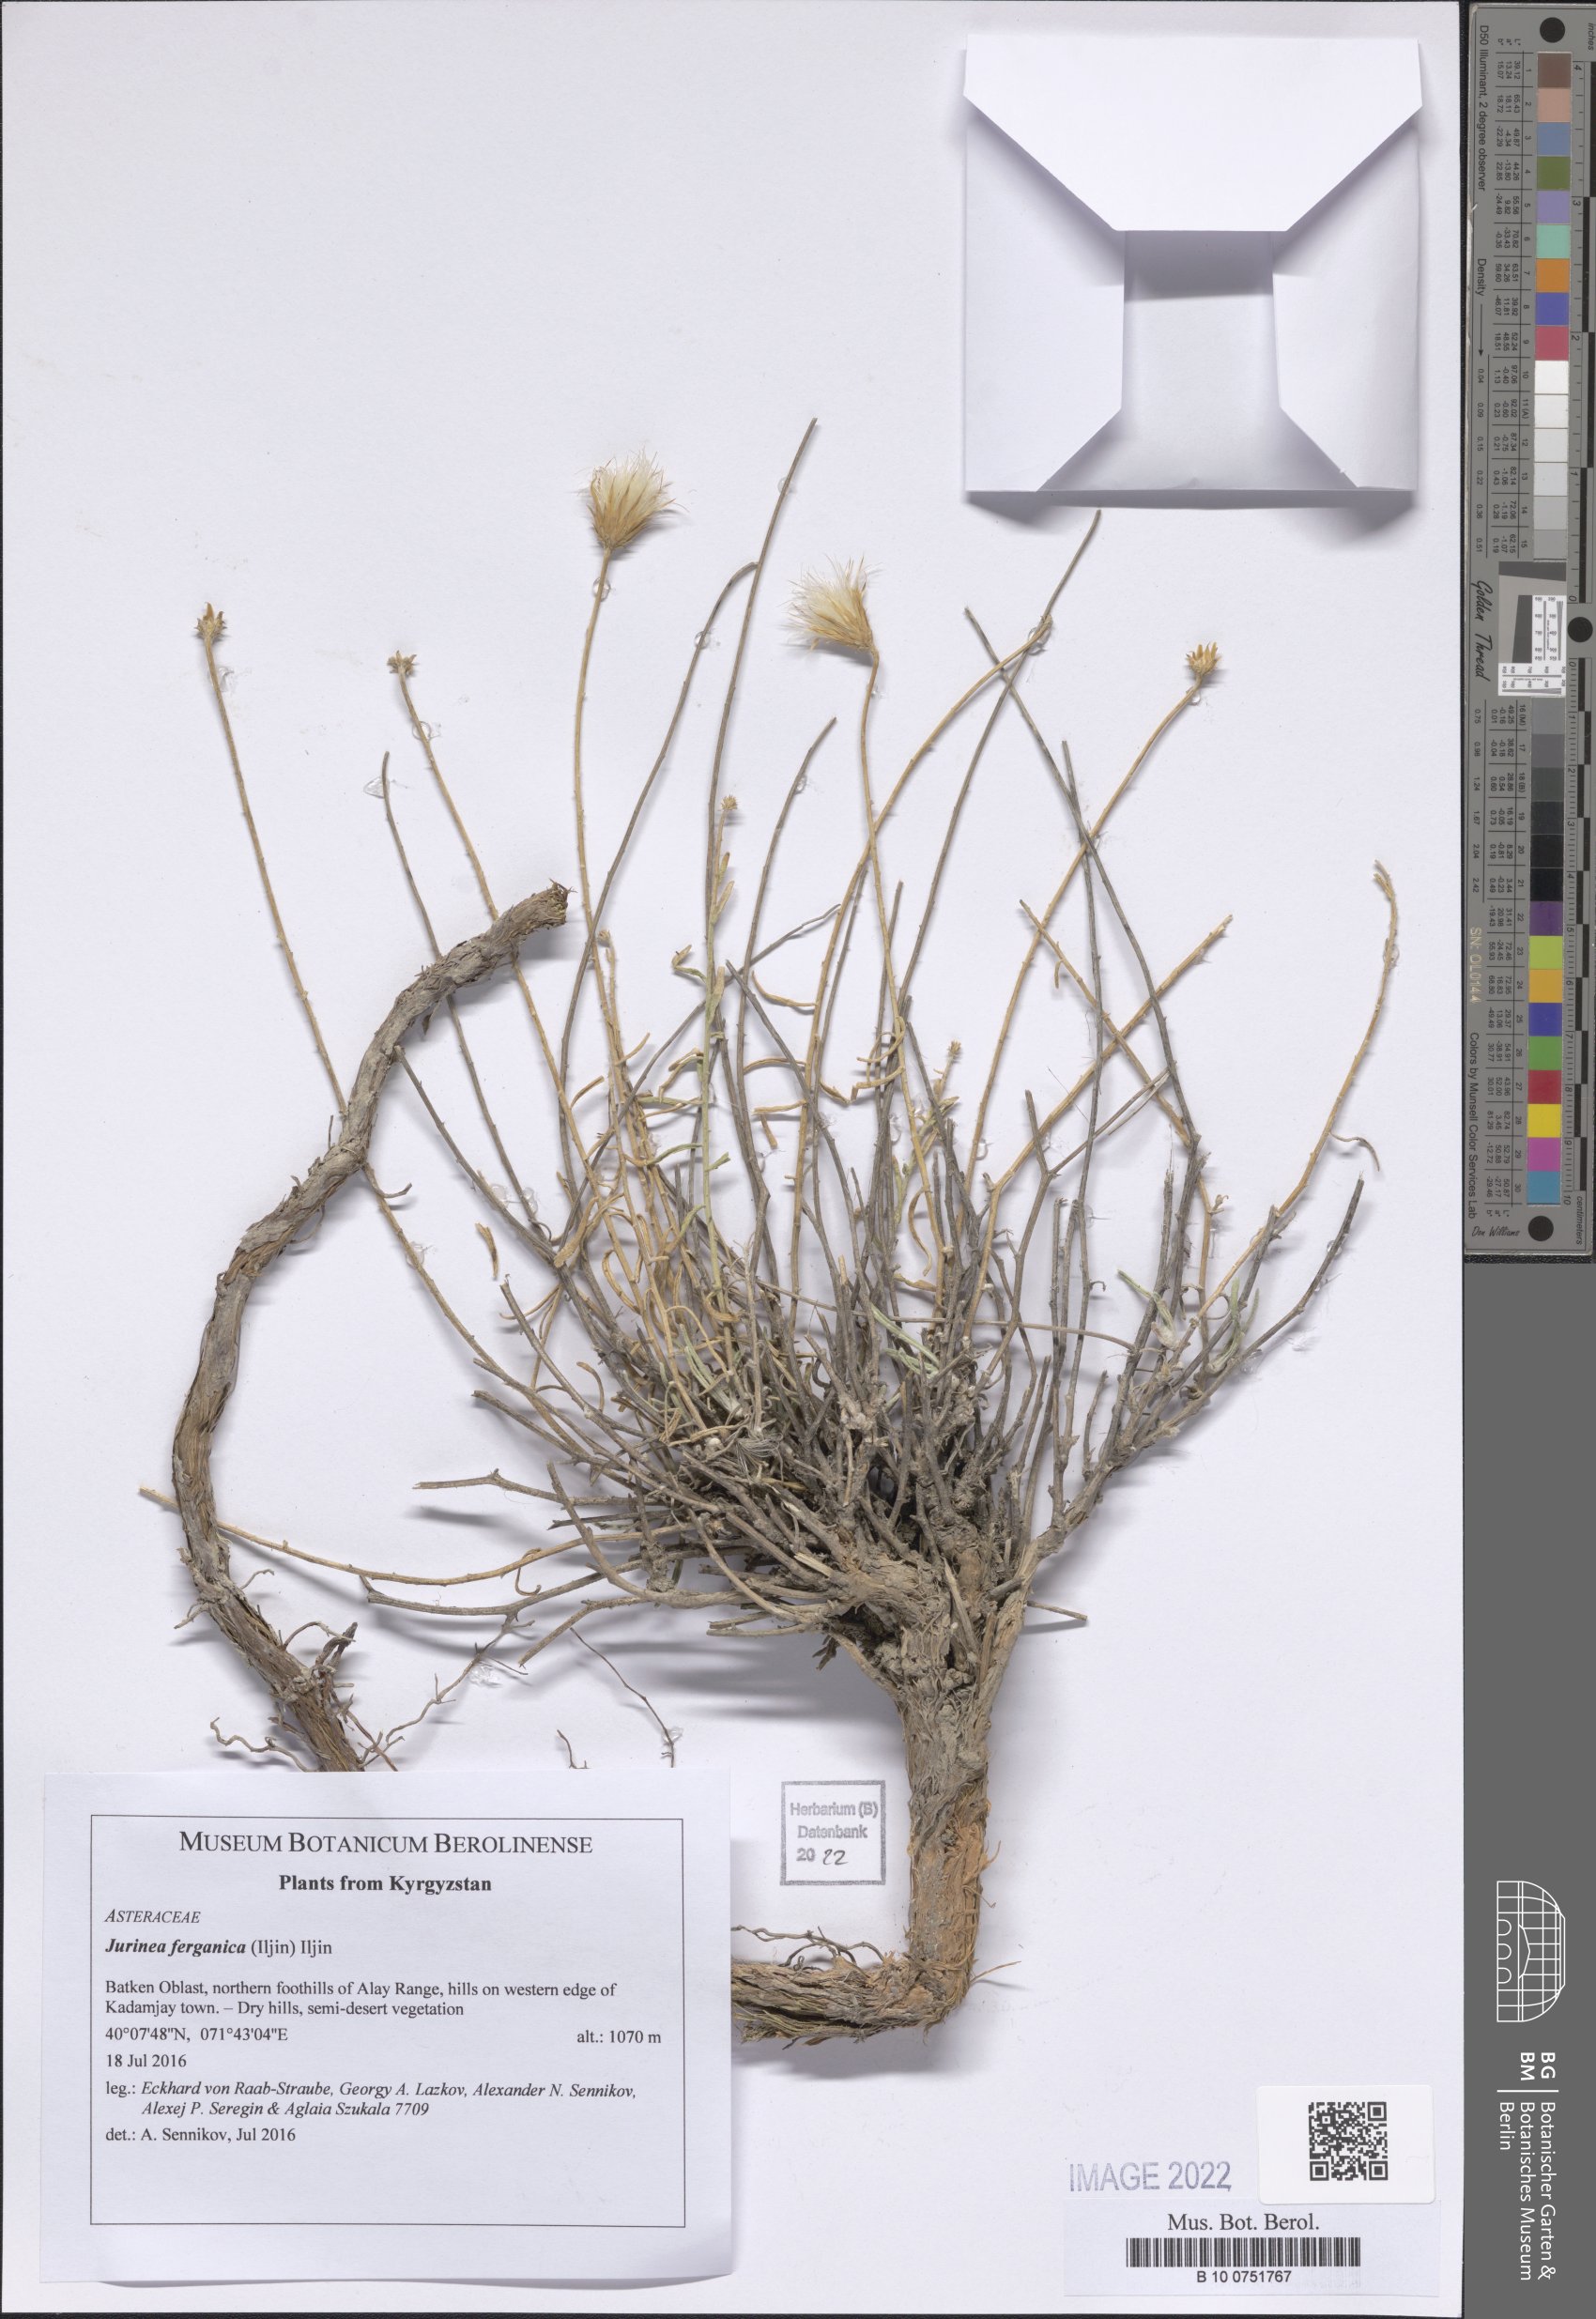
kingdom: Plantae
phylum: Tracheophyta
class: Magnoliopsida
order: Asterales
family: Asteraceae
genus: Jurinea
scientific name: Jurinea ferganica
